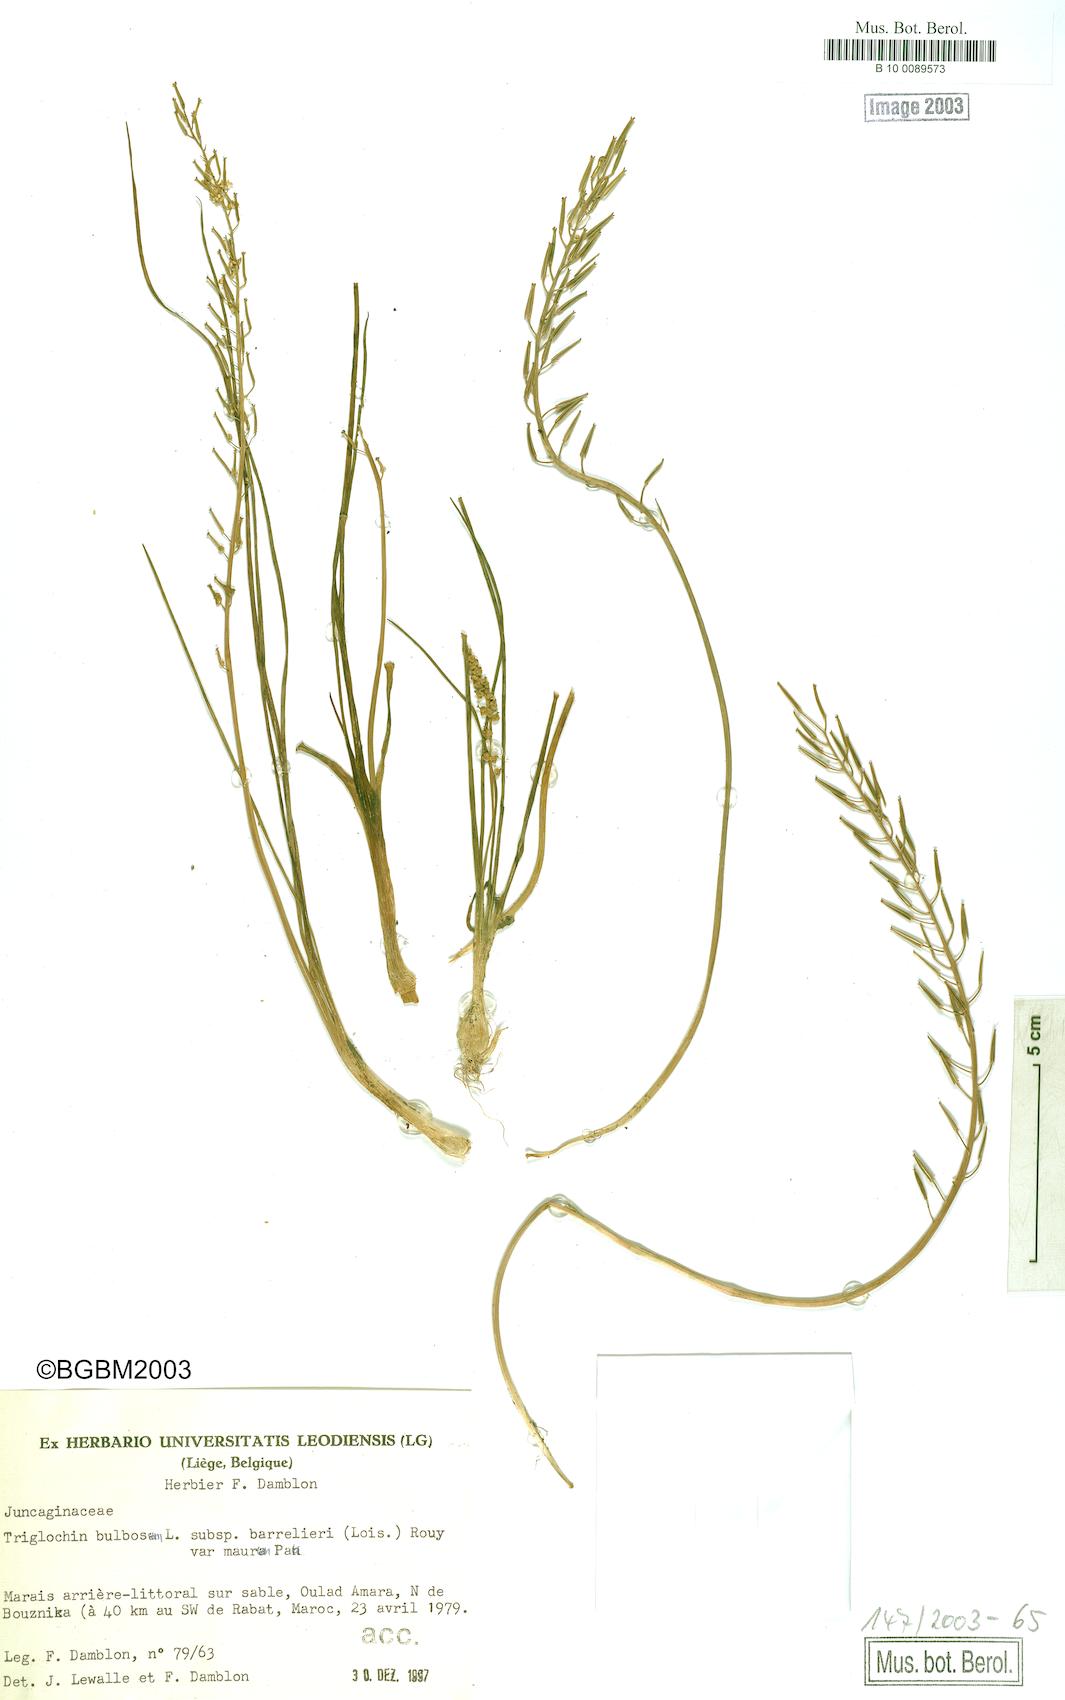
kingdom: Plantae
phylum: Tracheophyta
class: Liliopsida
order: Alismatales
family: Juncaginaceae
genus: Triglochin
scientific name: Triglochin barrelieri
